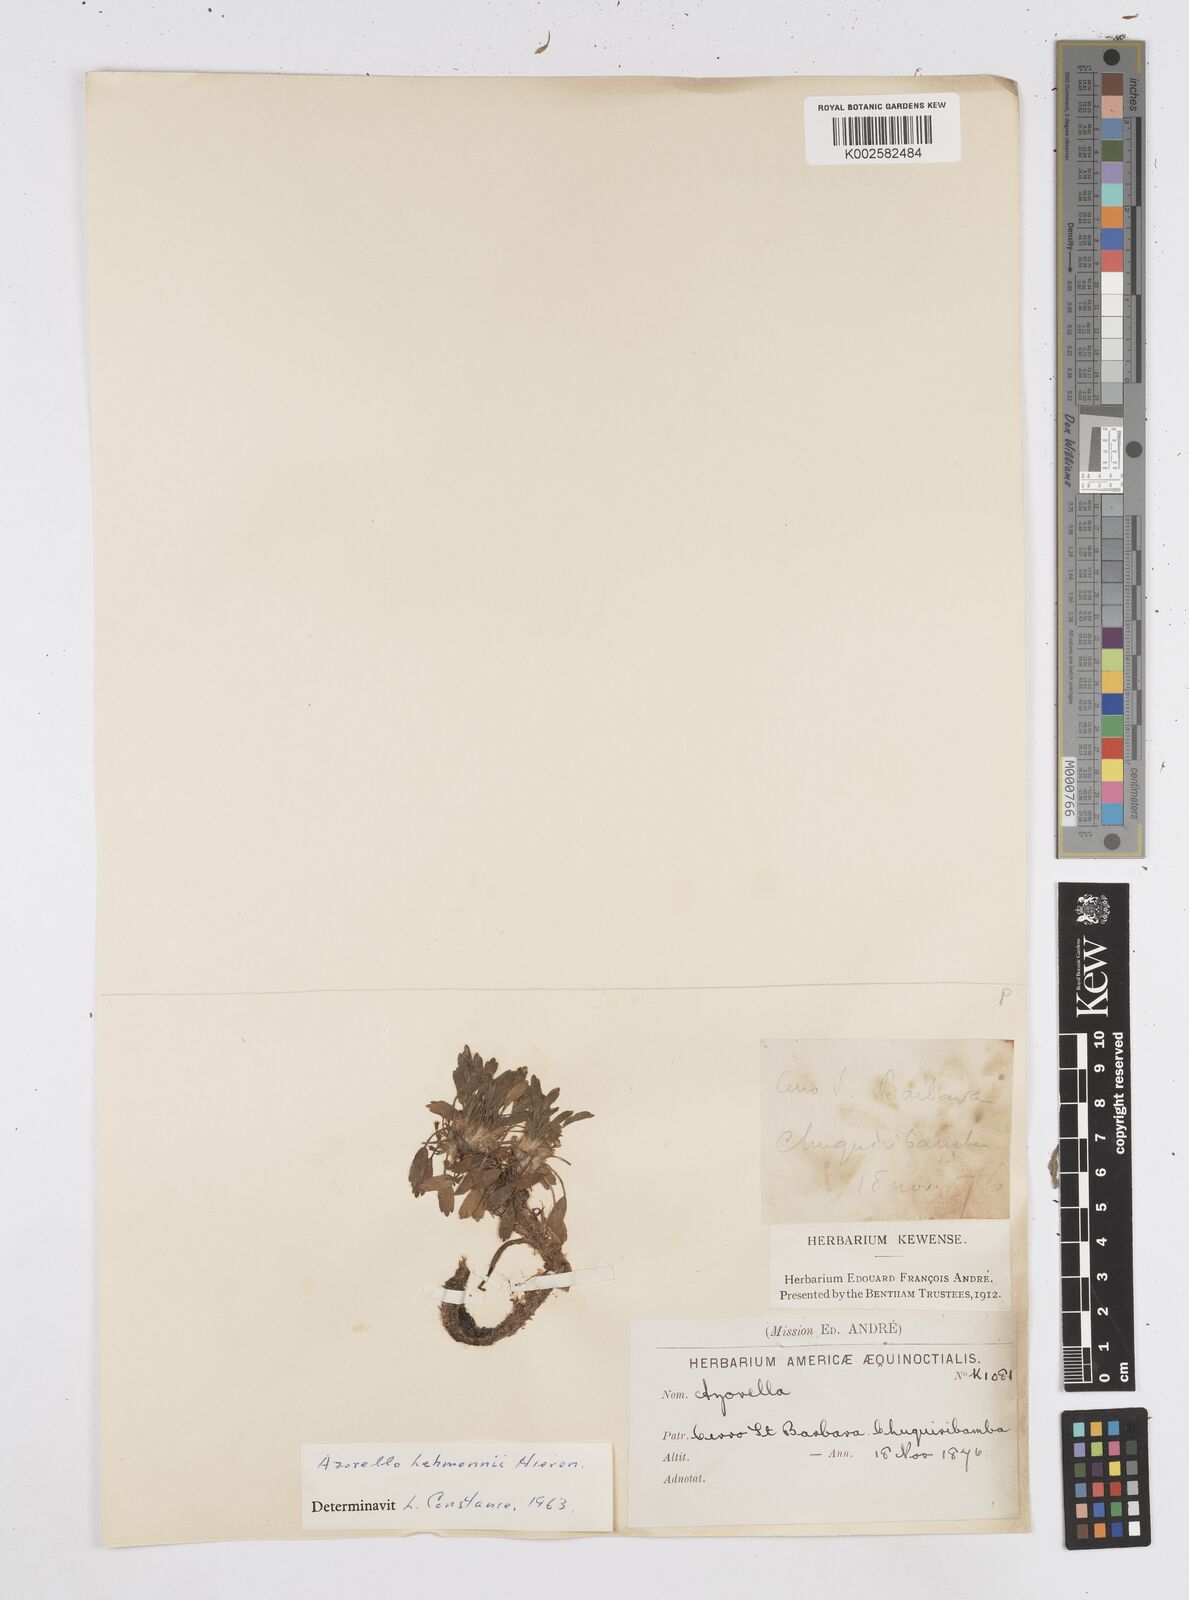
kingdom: Plantae
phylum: Tracheophyta
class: Magnoliopsida
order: Apiales
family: Apiaceae
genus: Azorella
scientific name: Azorella biloba
